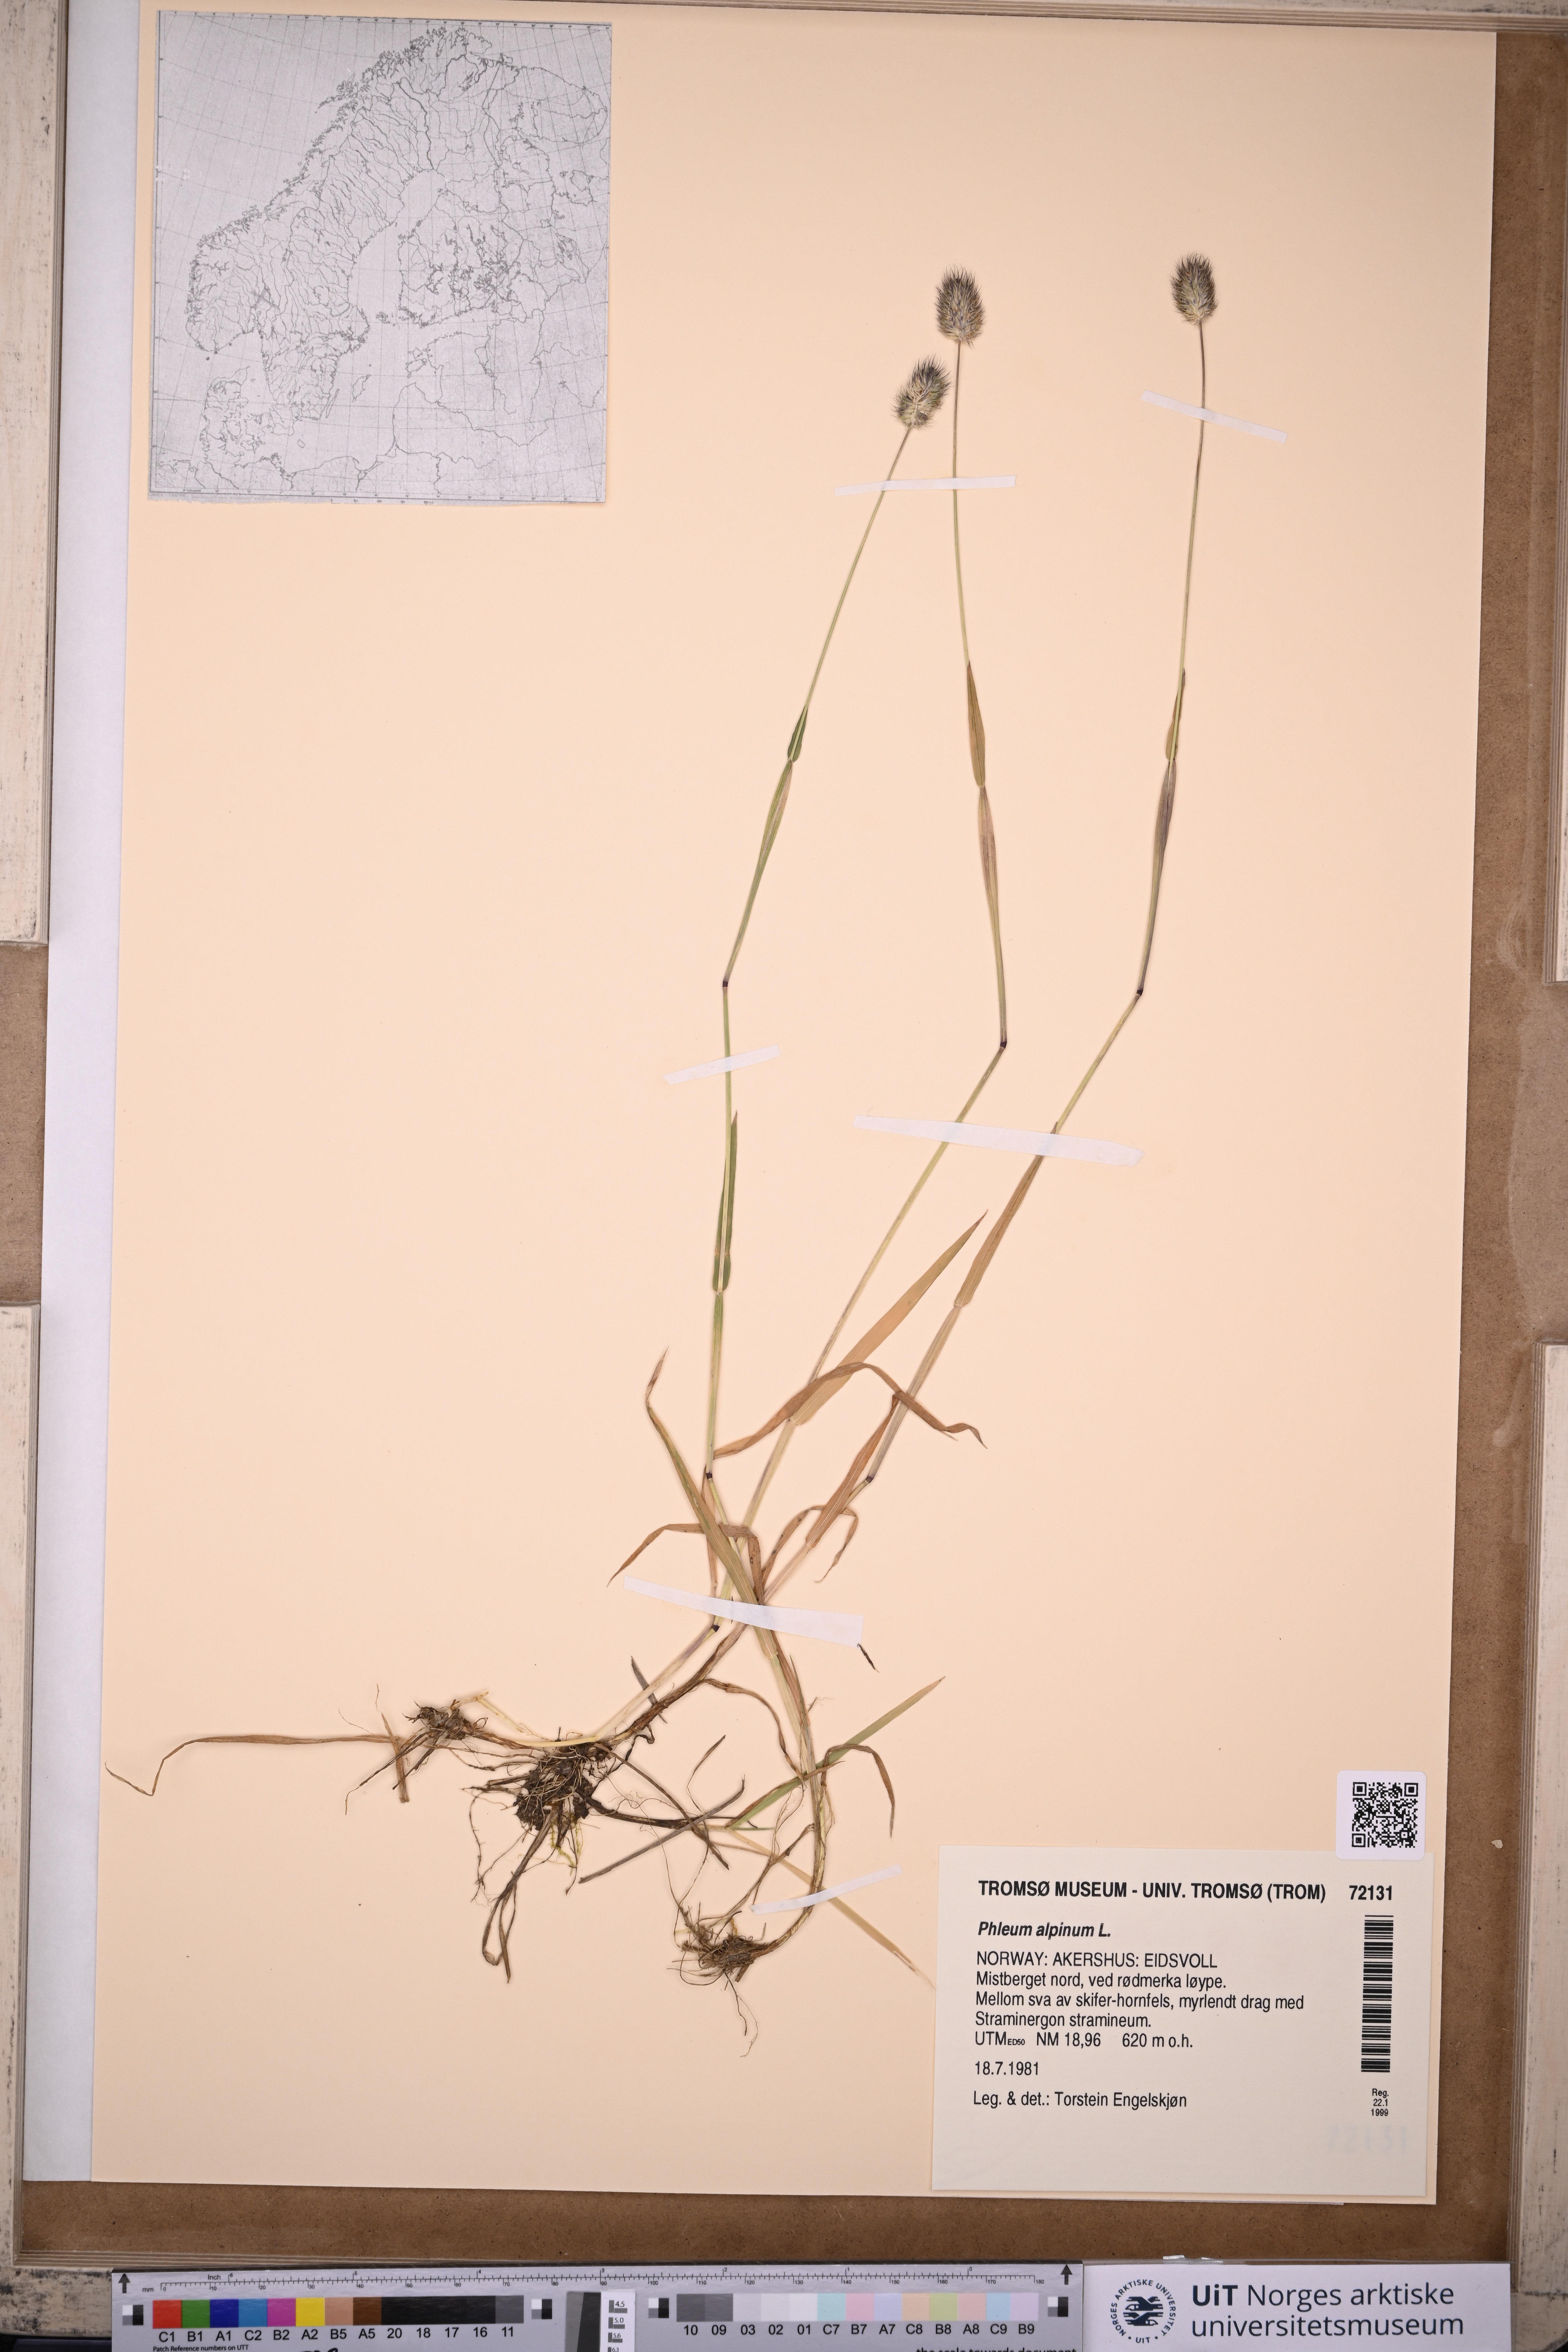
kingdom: Plantae
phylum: Tracheophyta
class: Liliopsida
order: Poales
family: Poaceae
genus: Phleum
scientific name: Phleum alpinum
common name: Alpine cat's-tail
